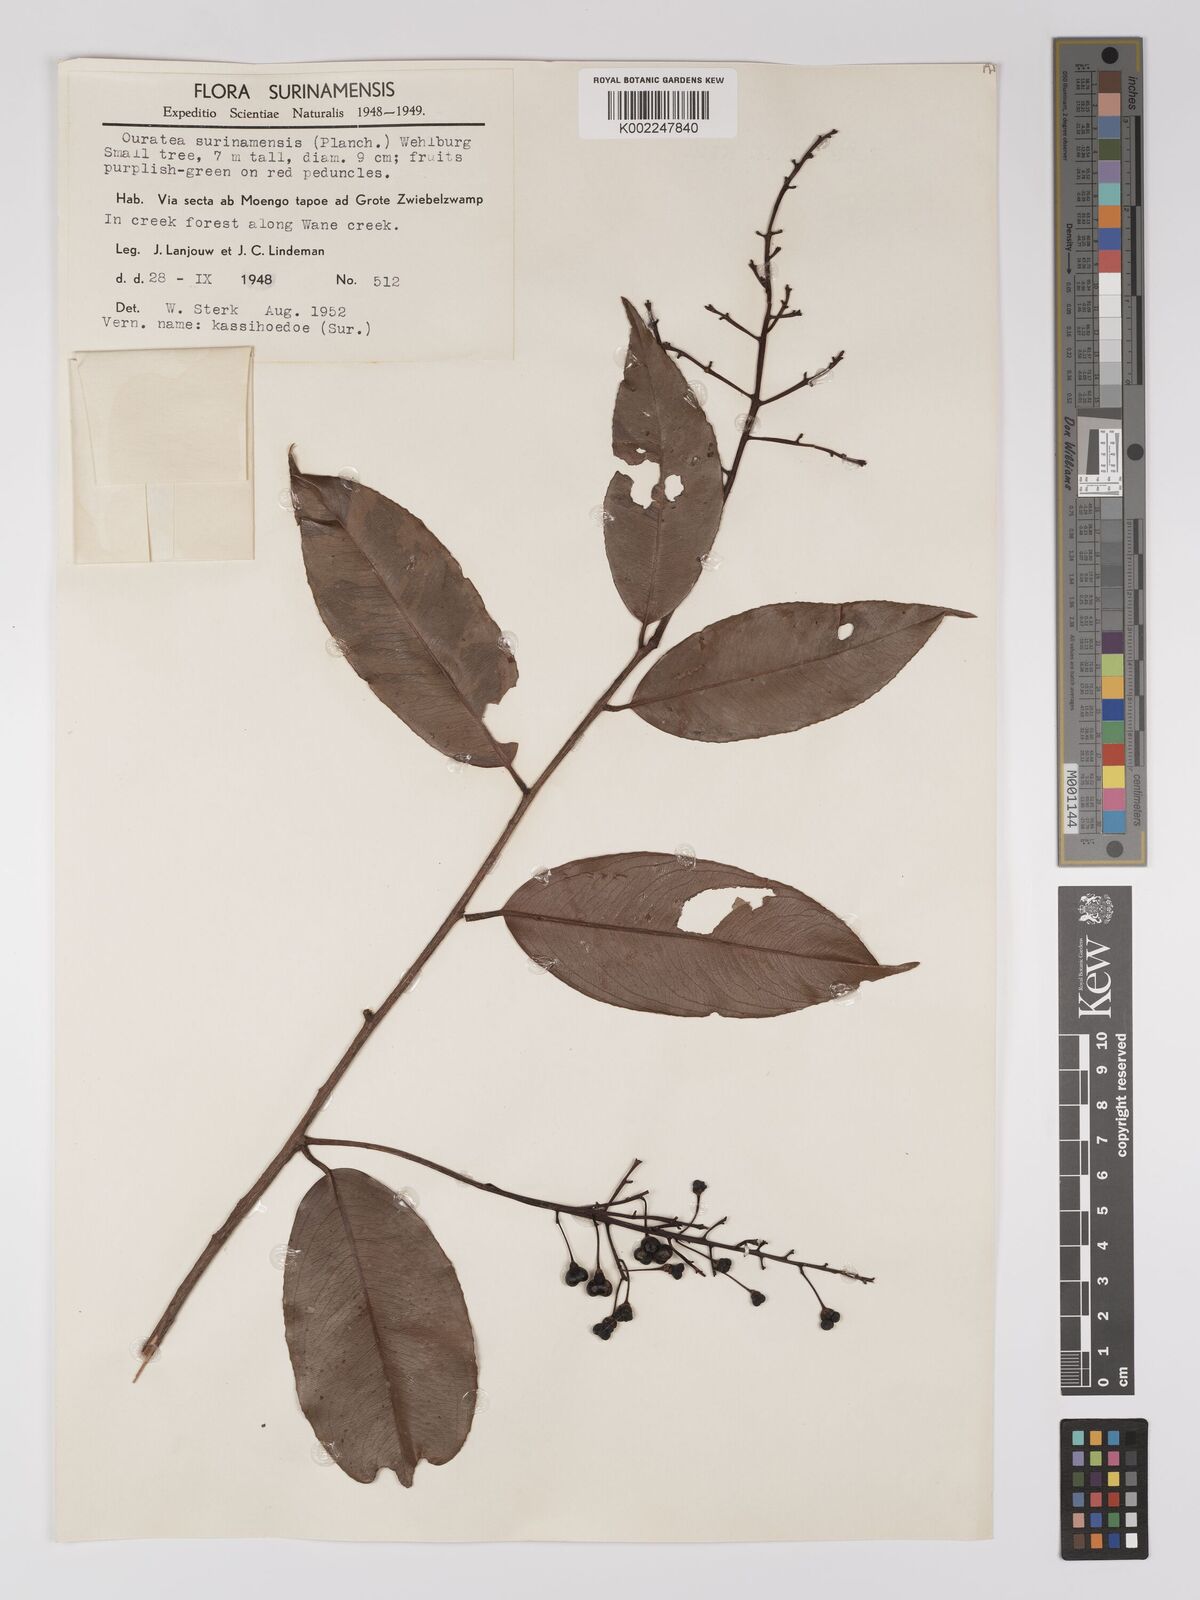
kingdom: Plantae
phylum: Tracheophyta
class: Magnoliopsida
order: Malpighiales
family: Ochnaceae
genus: Ouratea
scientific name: Ouratea cardiosperma
